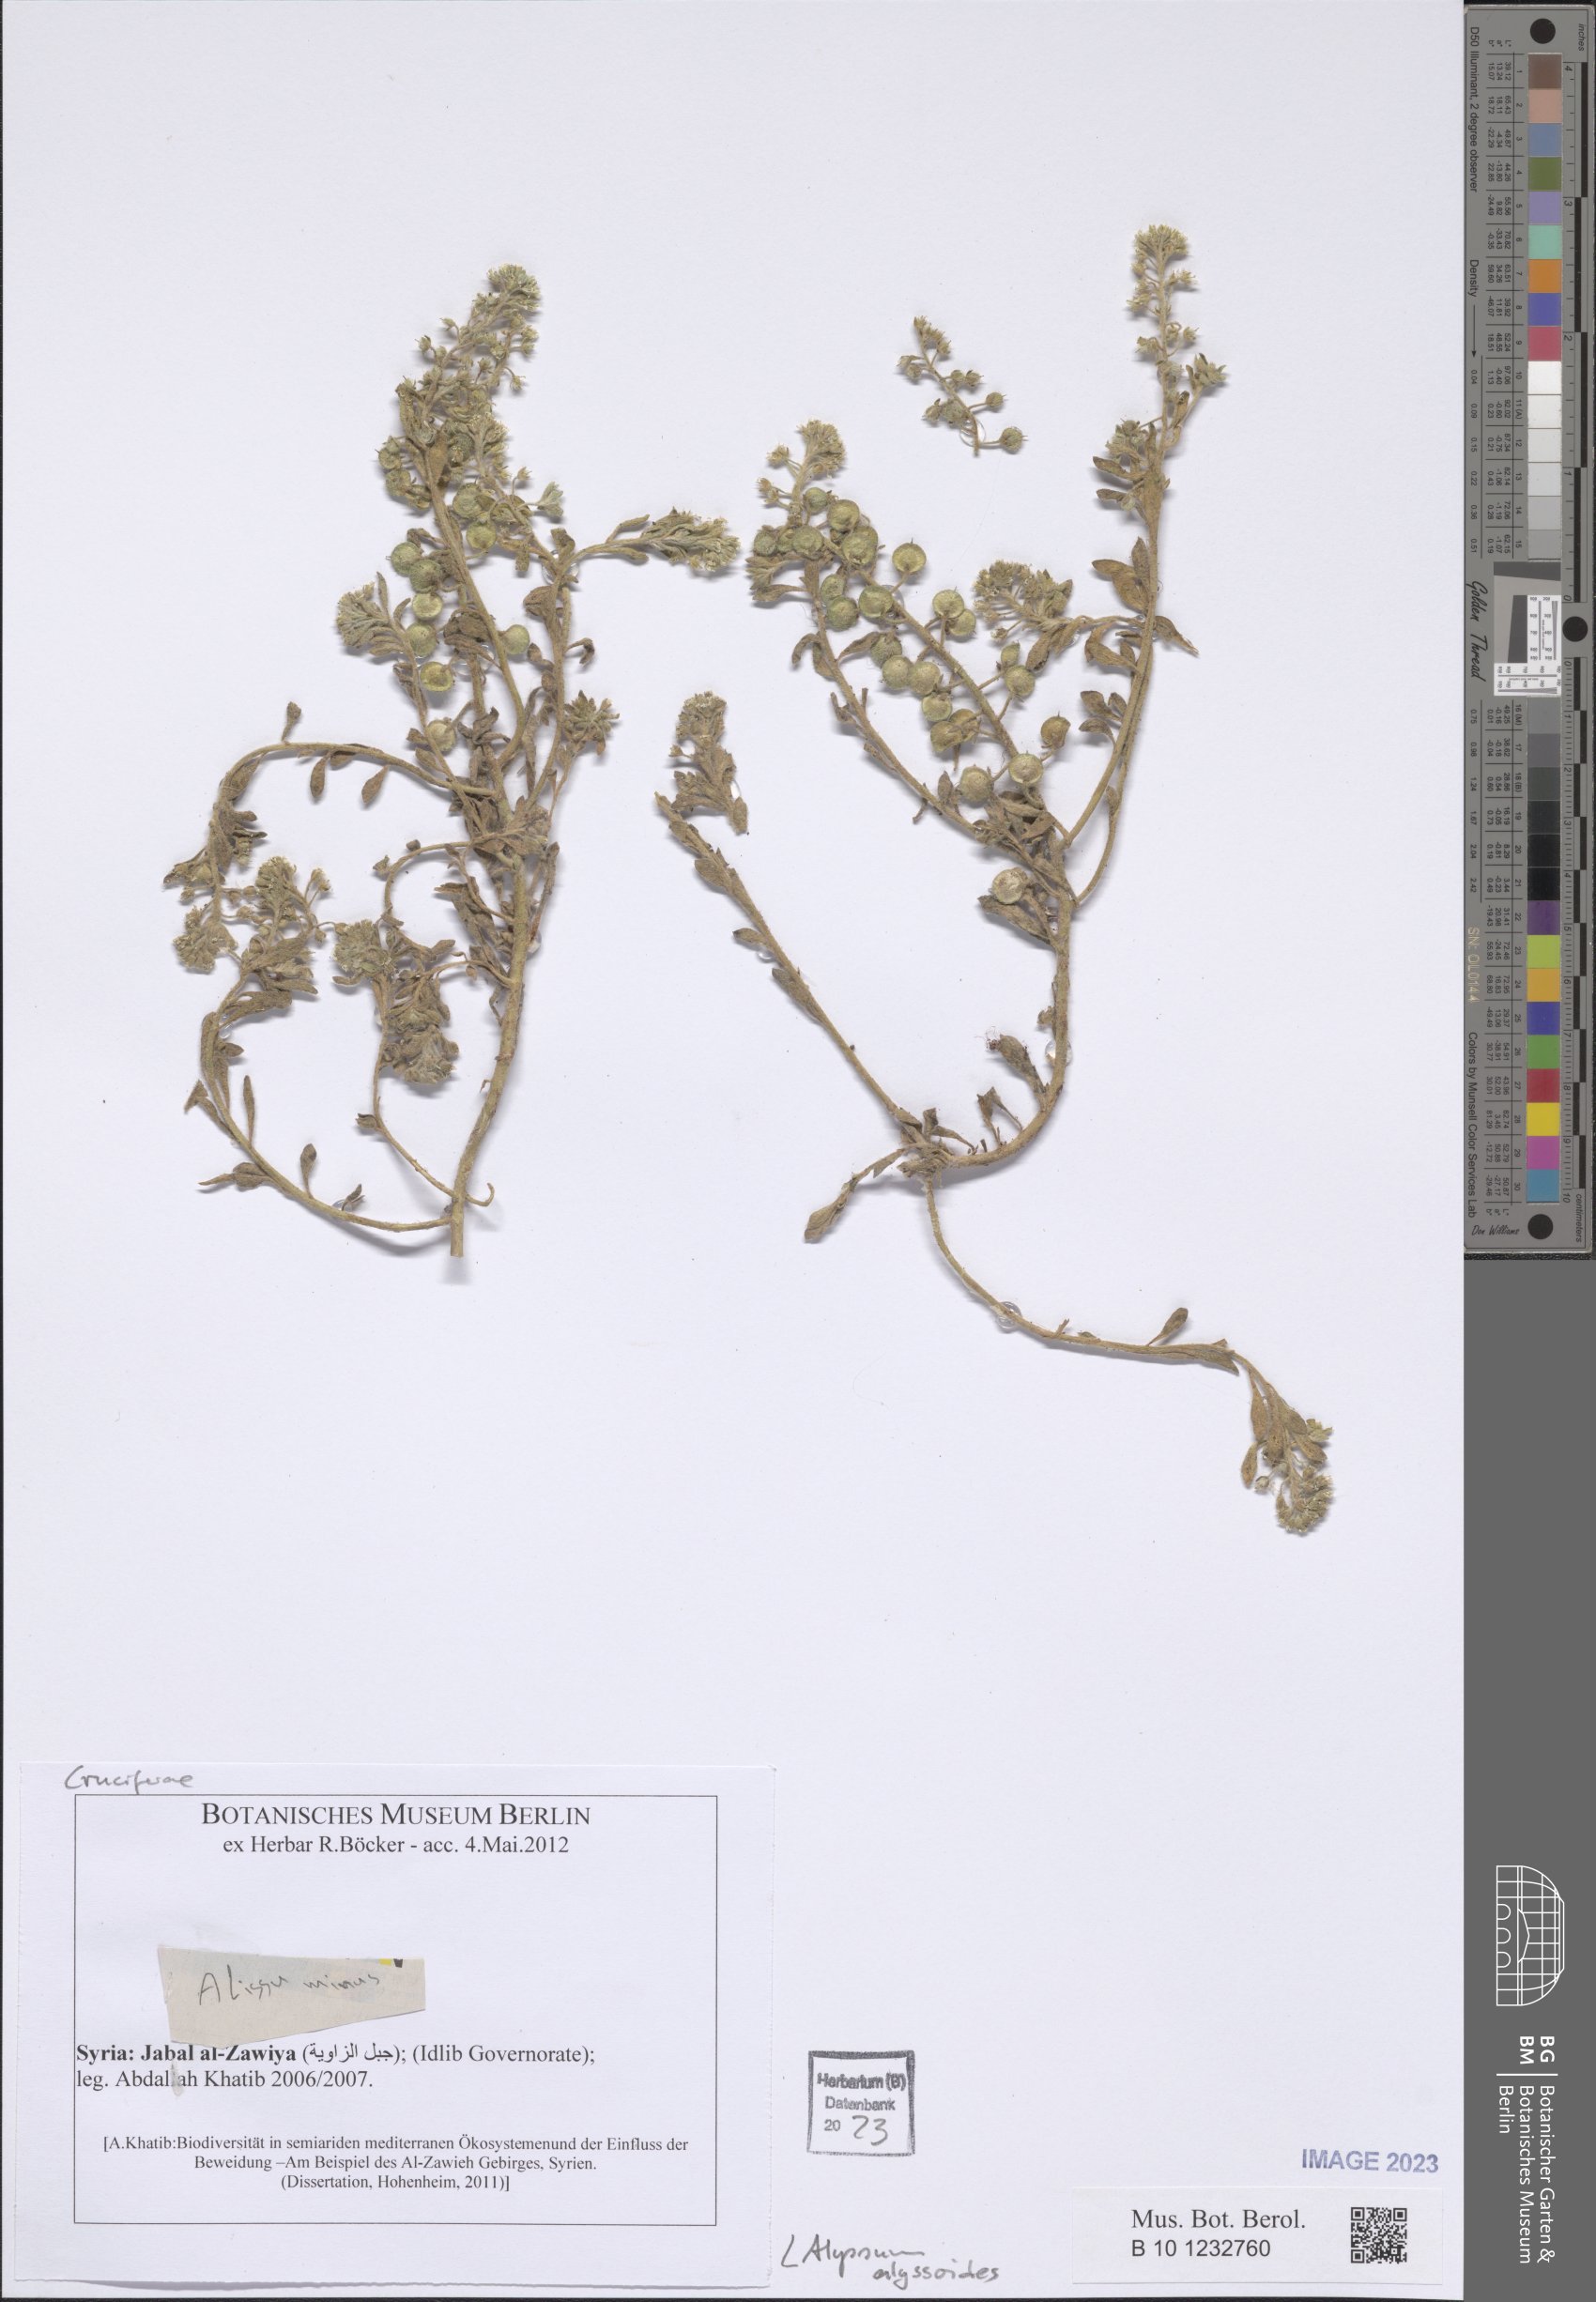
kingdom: Plantae
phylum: Tracheophyta
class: Magnoliopsida
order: Brassicales
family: Brassicaceae
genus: Alyssum
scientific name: Alyssum alyssoides
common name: Small alison
